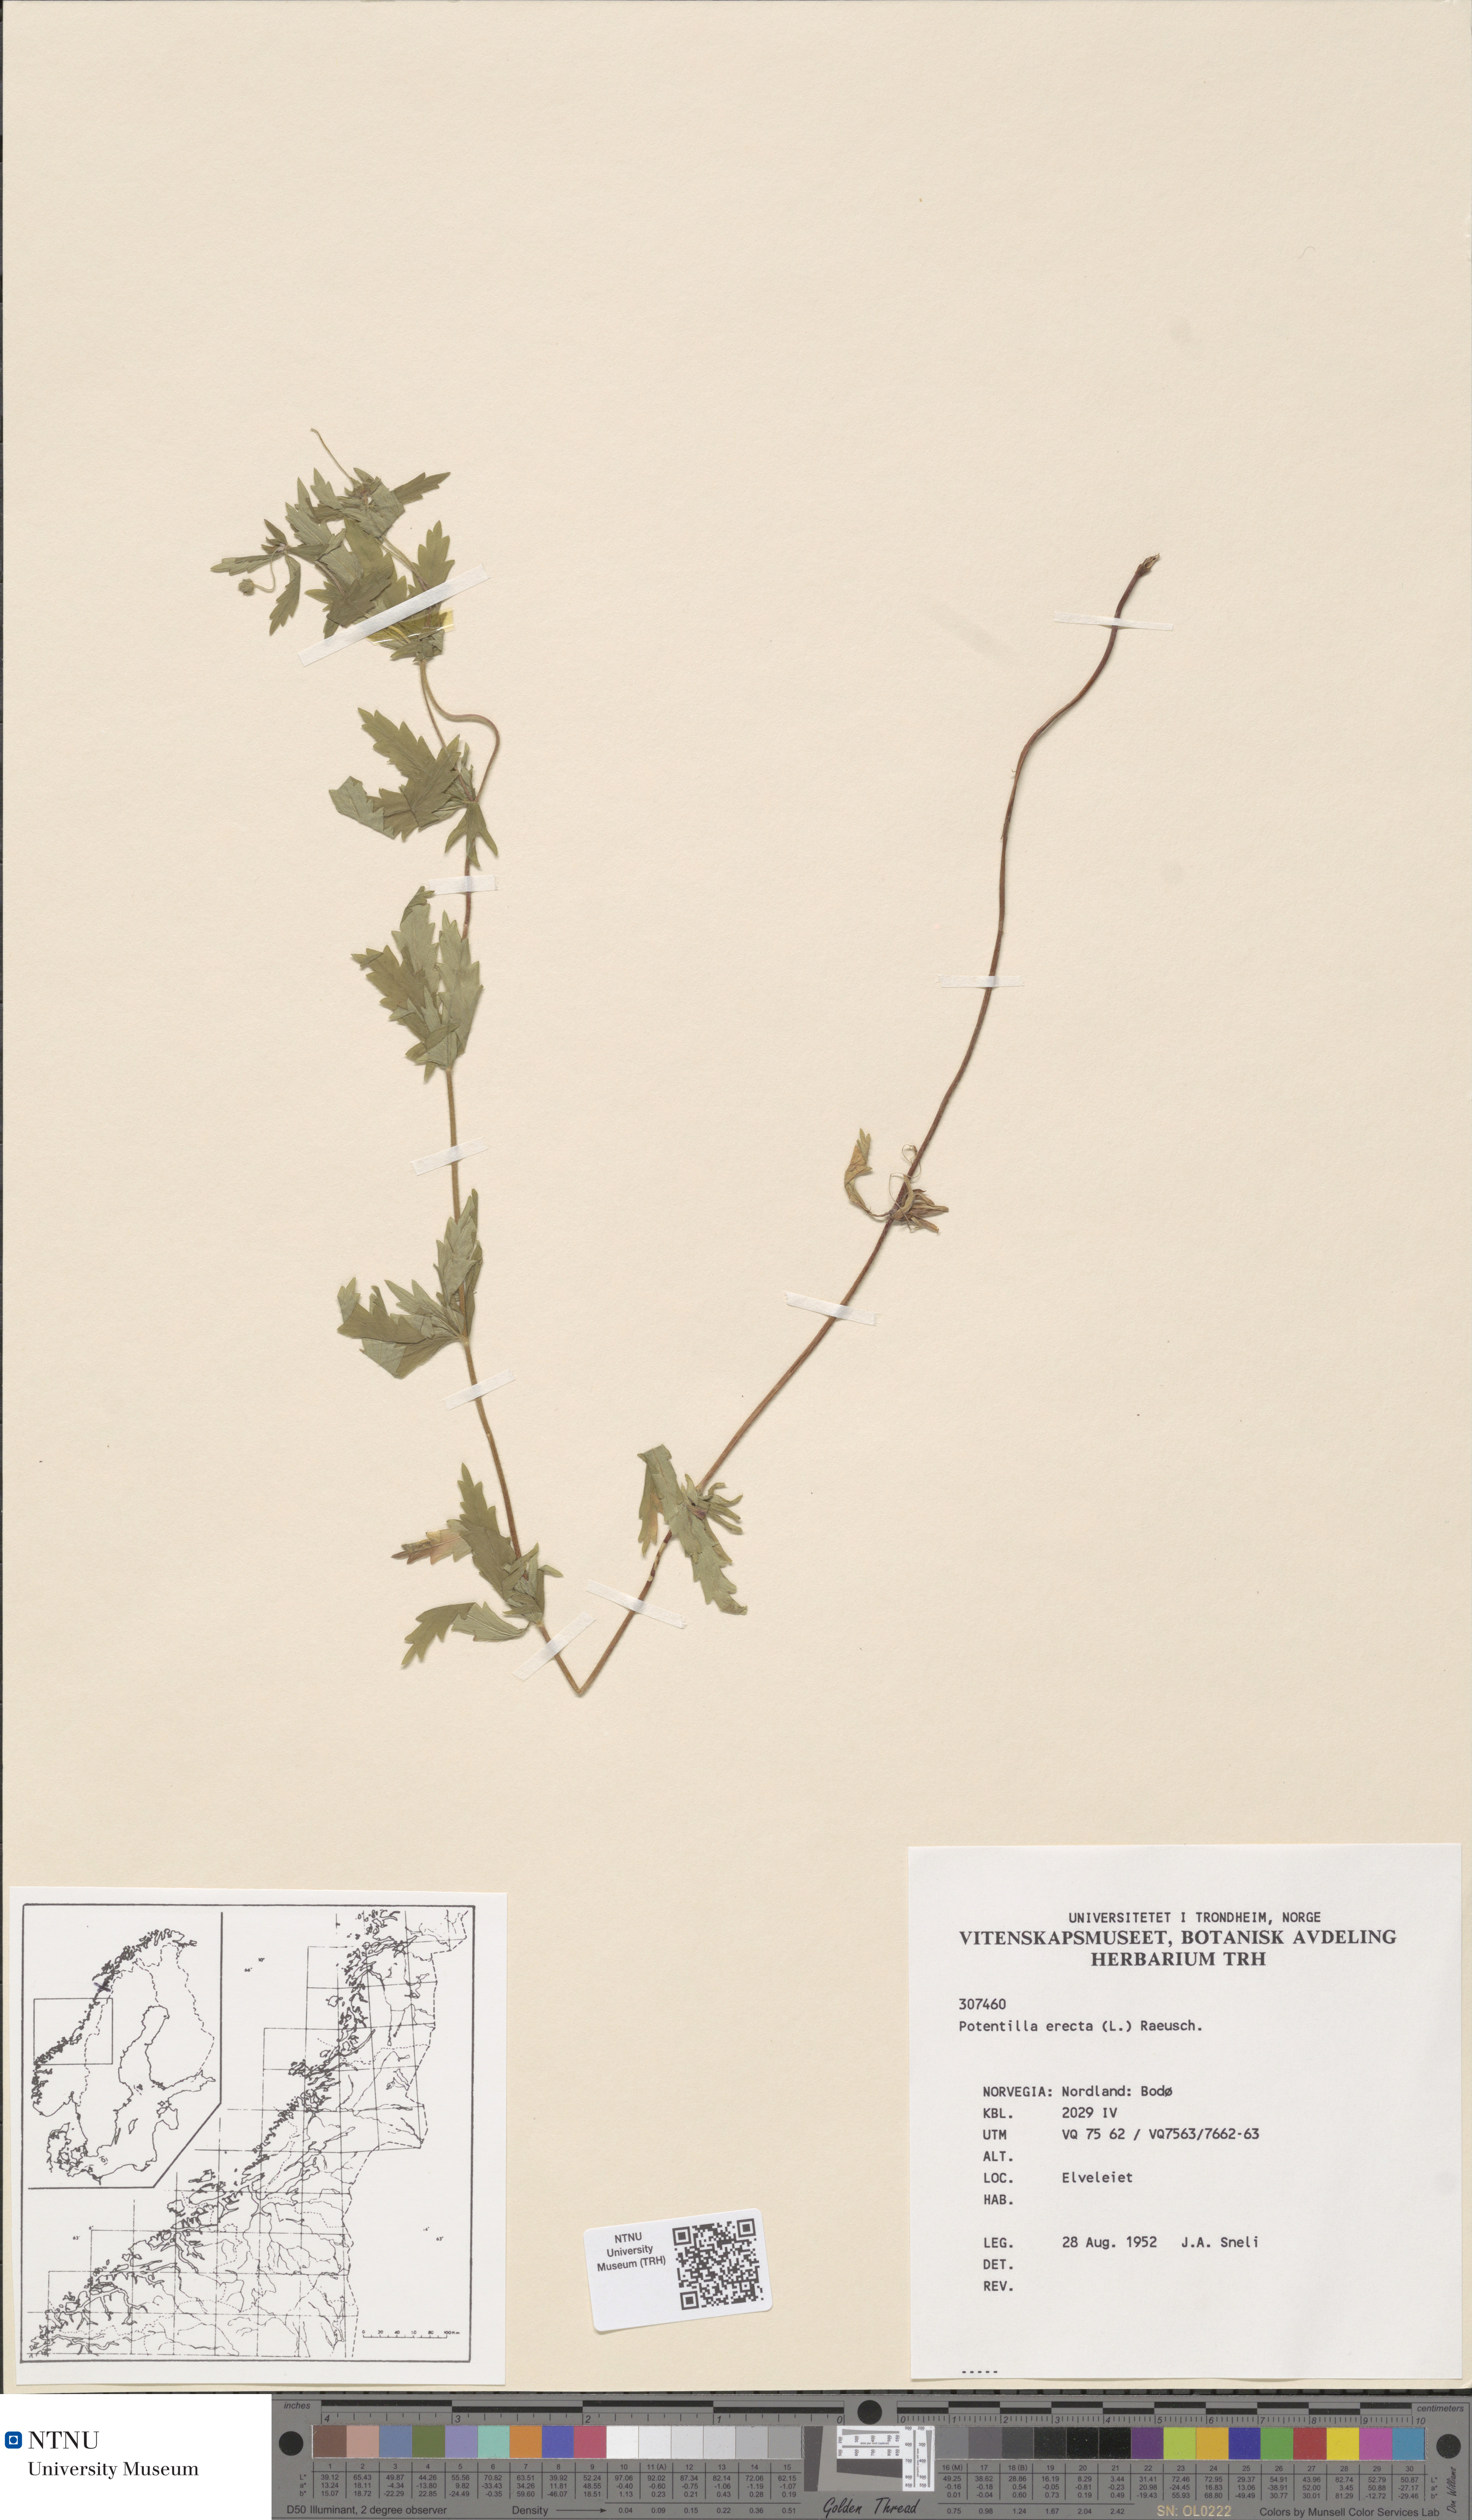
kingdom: Plantae
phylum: Tracheophyta
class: Magnoliopsida
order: Rosales
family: Rosaceae
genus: Potentilla
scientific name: Potentilla erecta
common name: Tormentil
